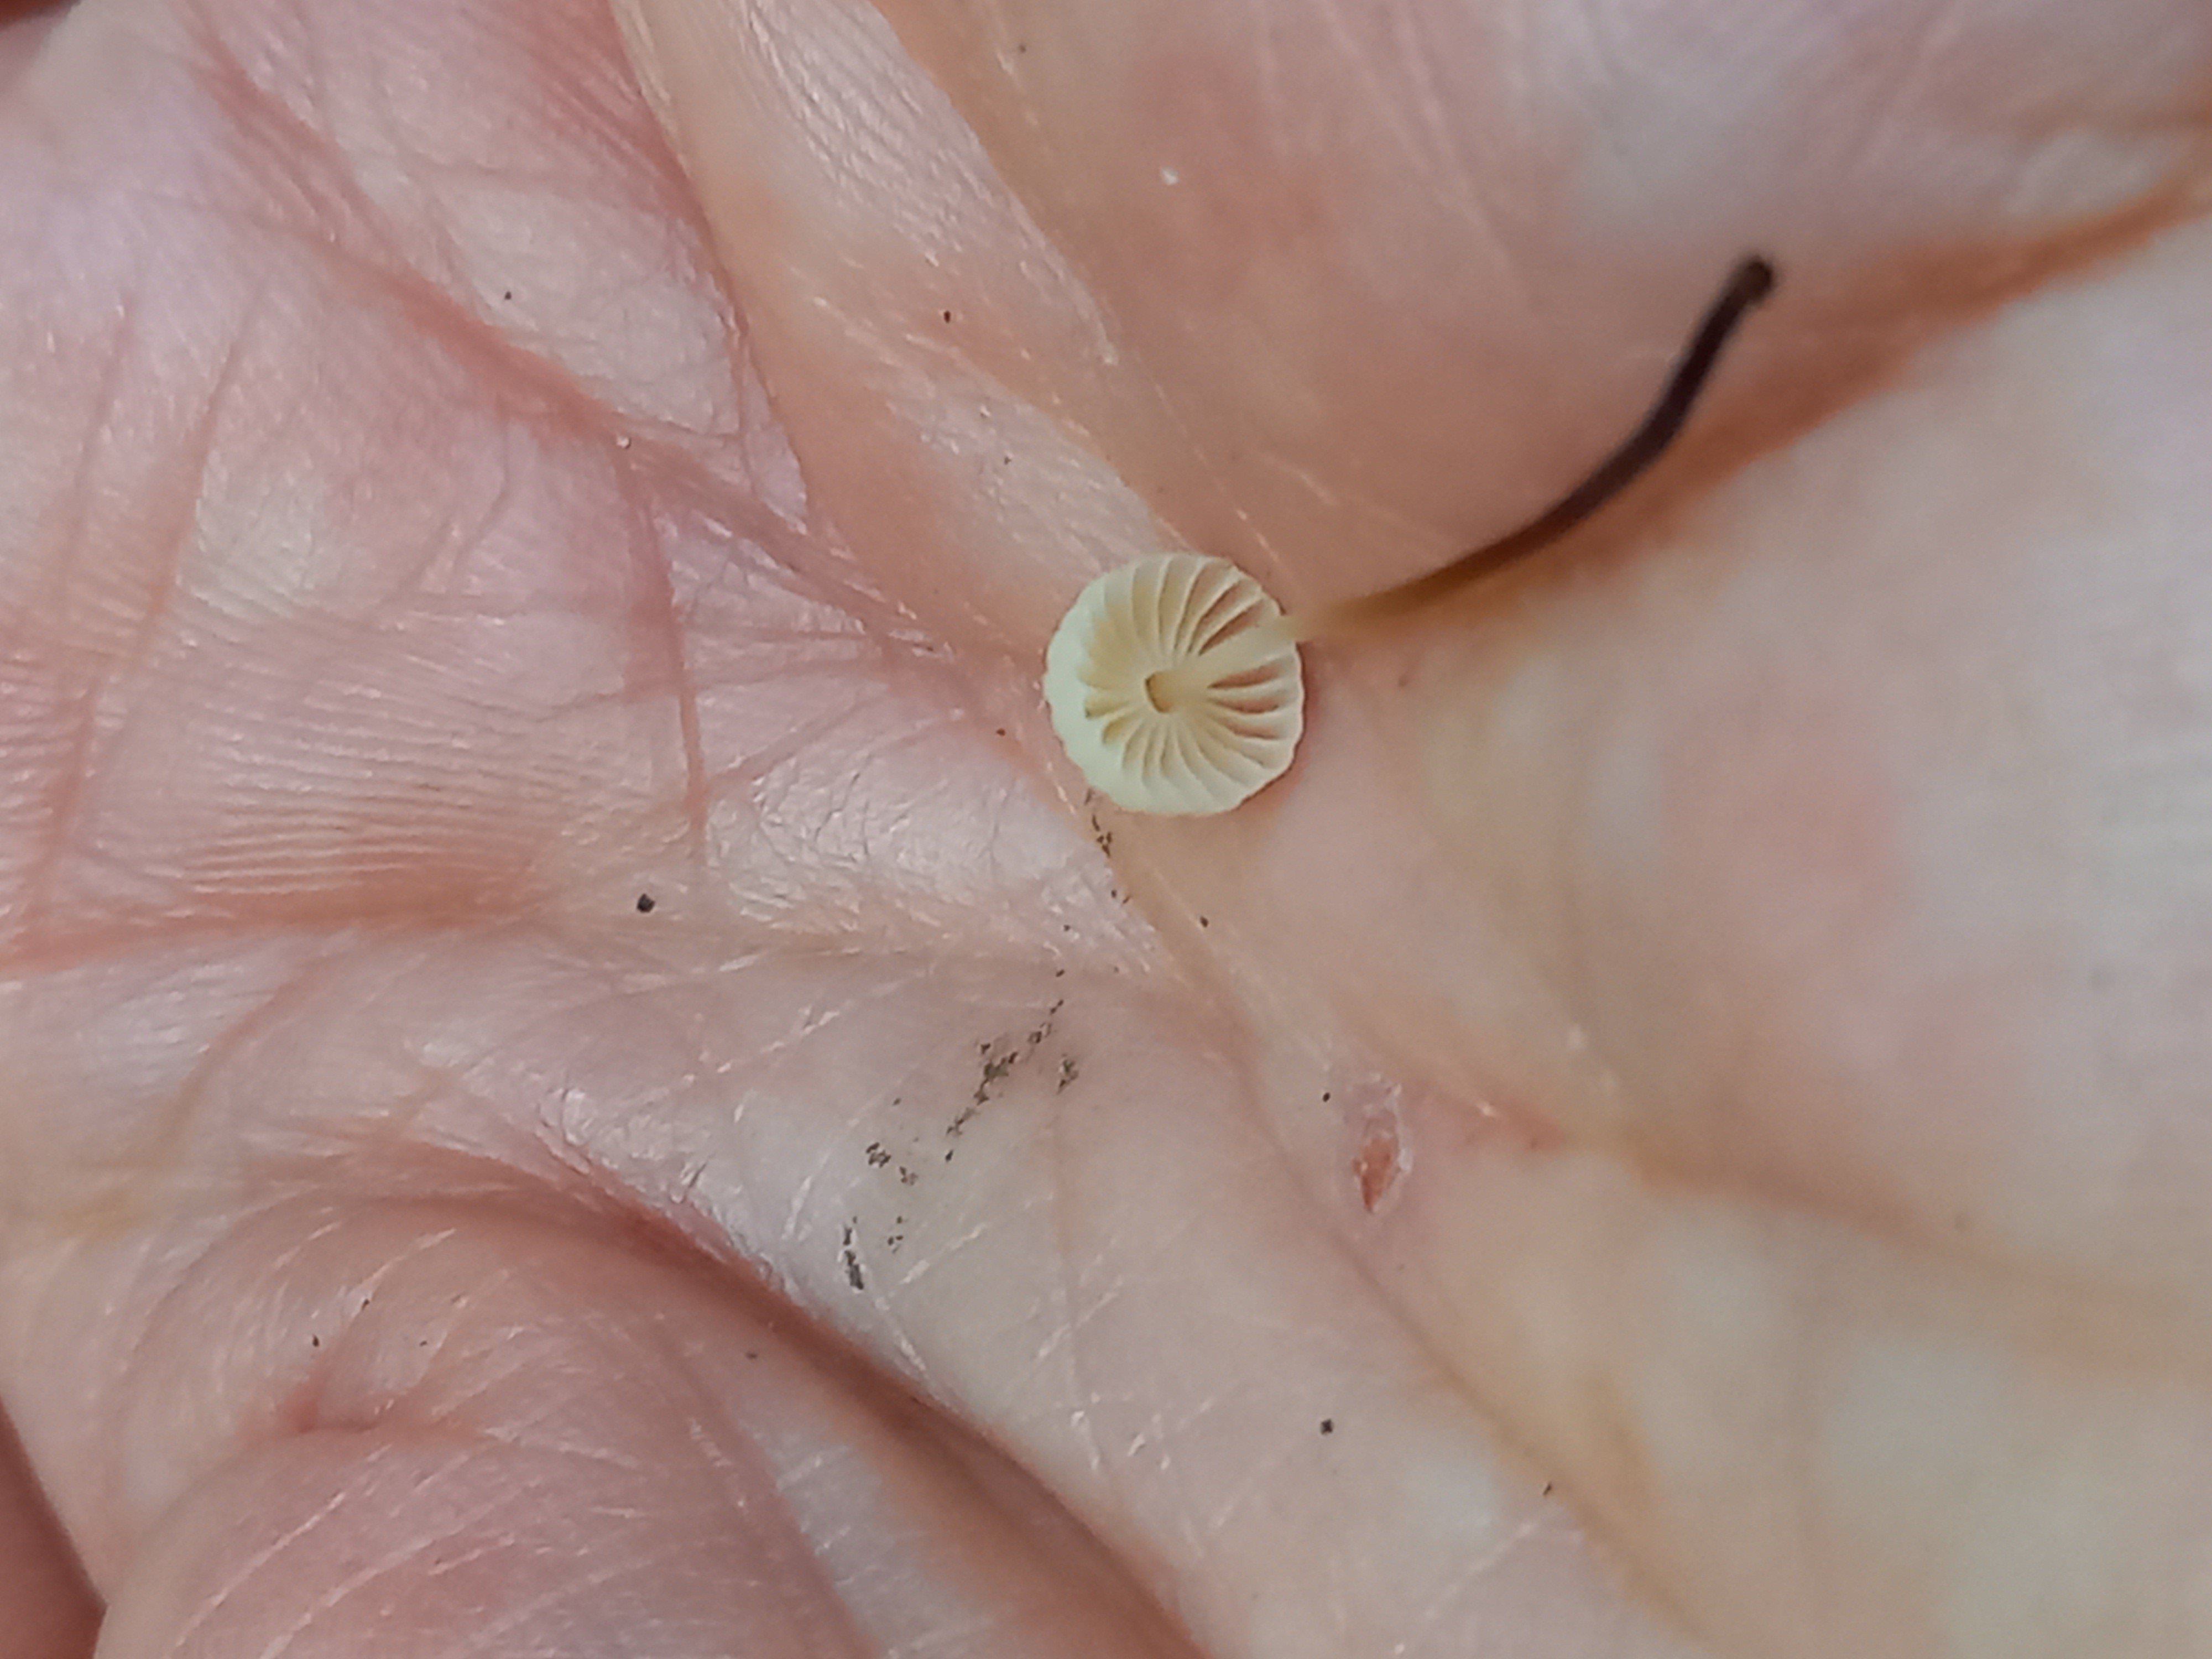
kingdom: Fungi
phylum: Basidiomycota
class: Agaricomycetes
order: Agaricales
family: Marasmiaceae
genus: Marasmius
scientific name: Marasmius rotula
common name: hjul-bruskhat
